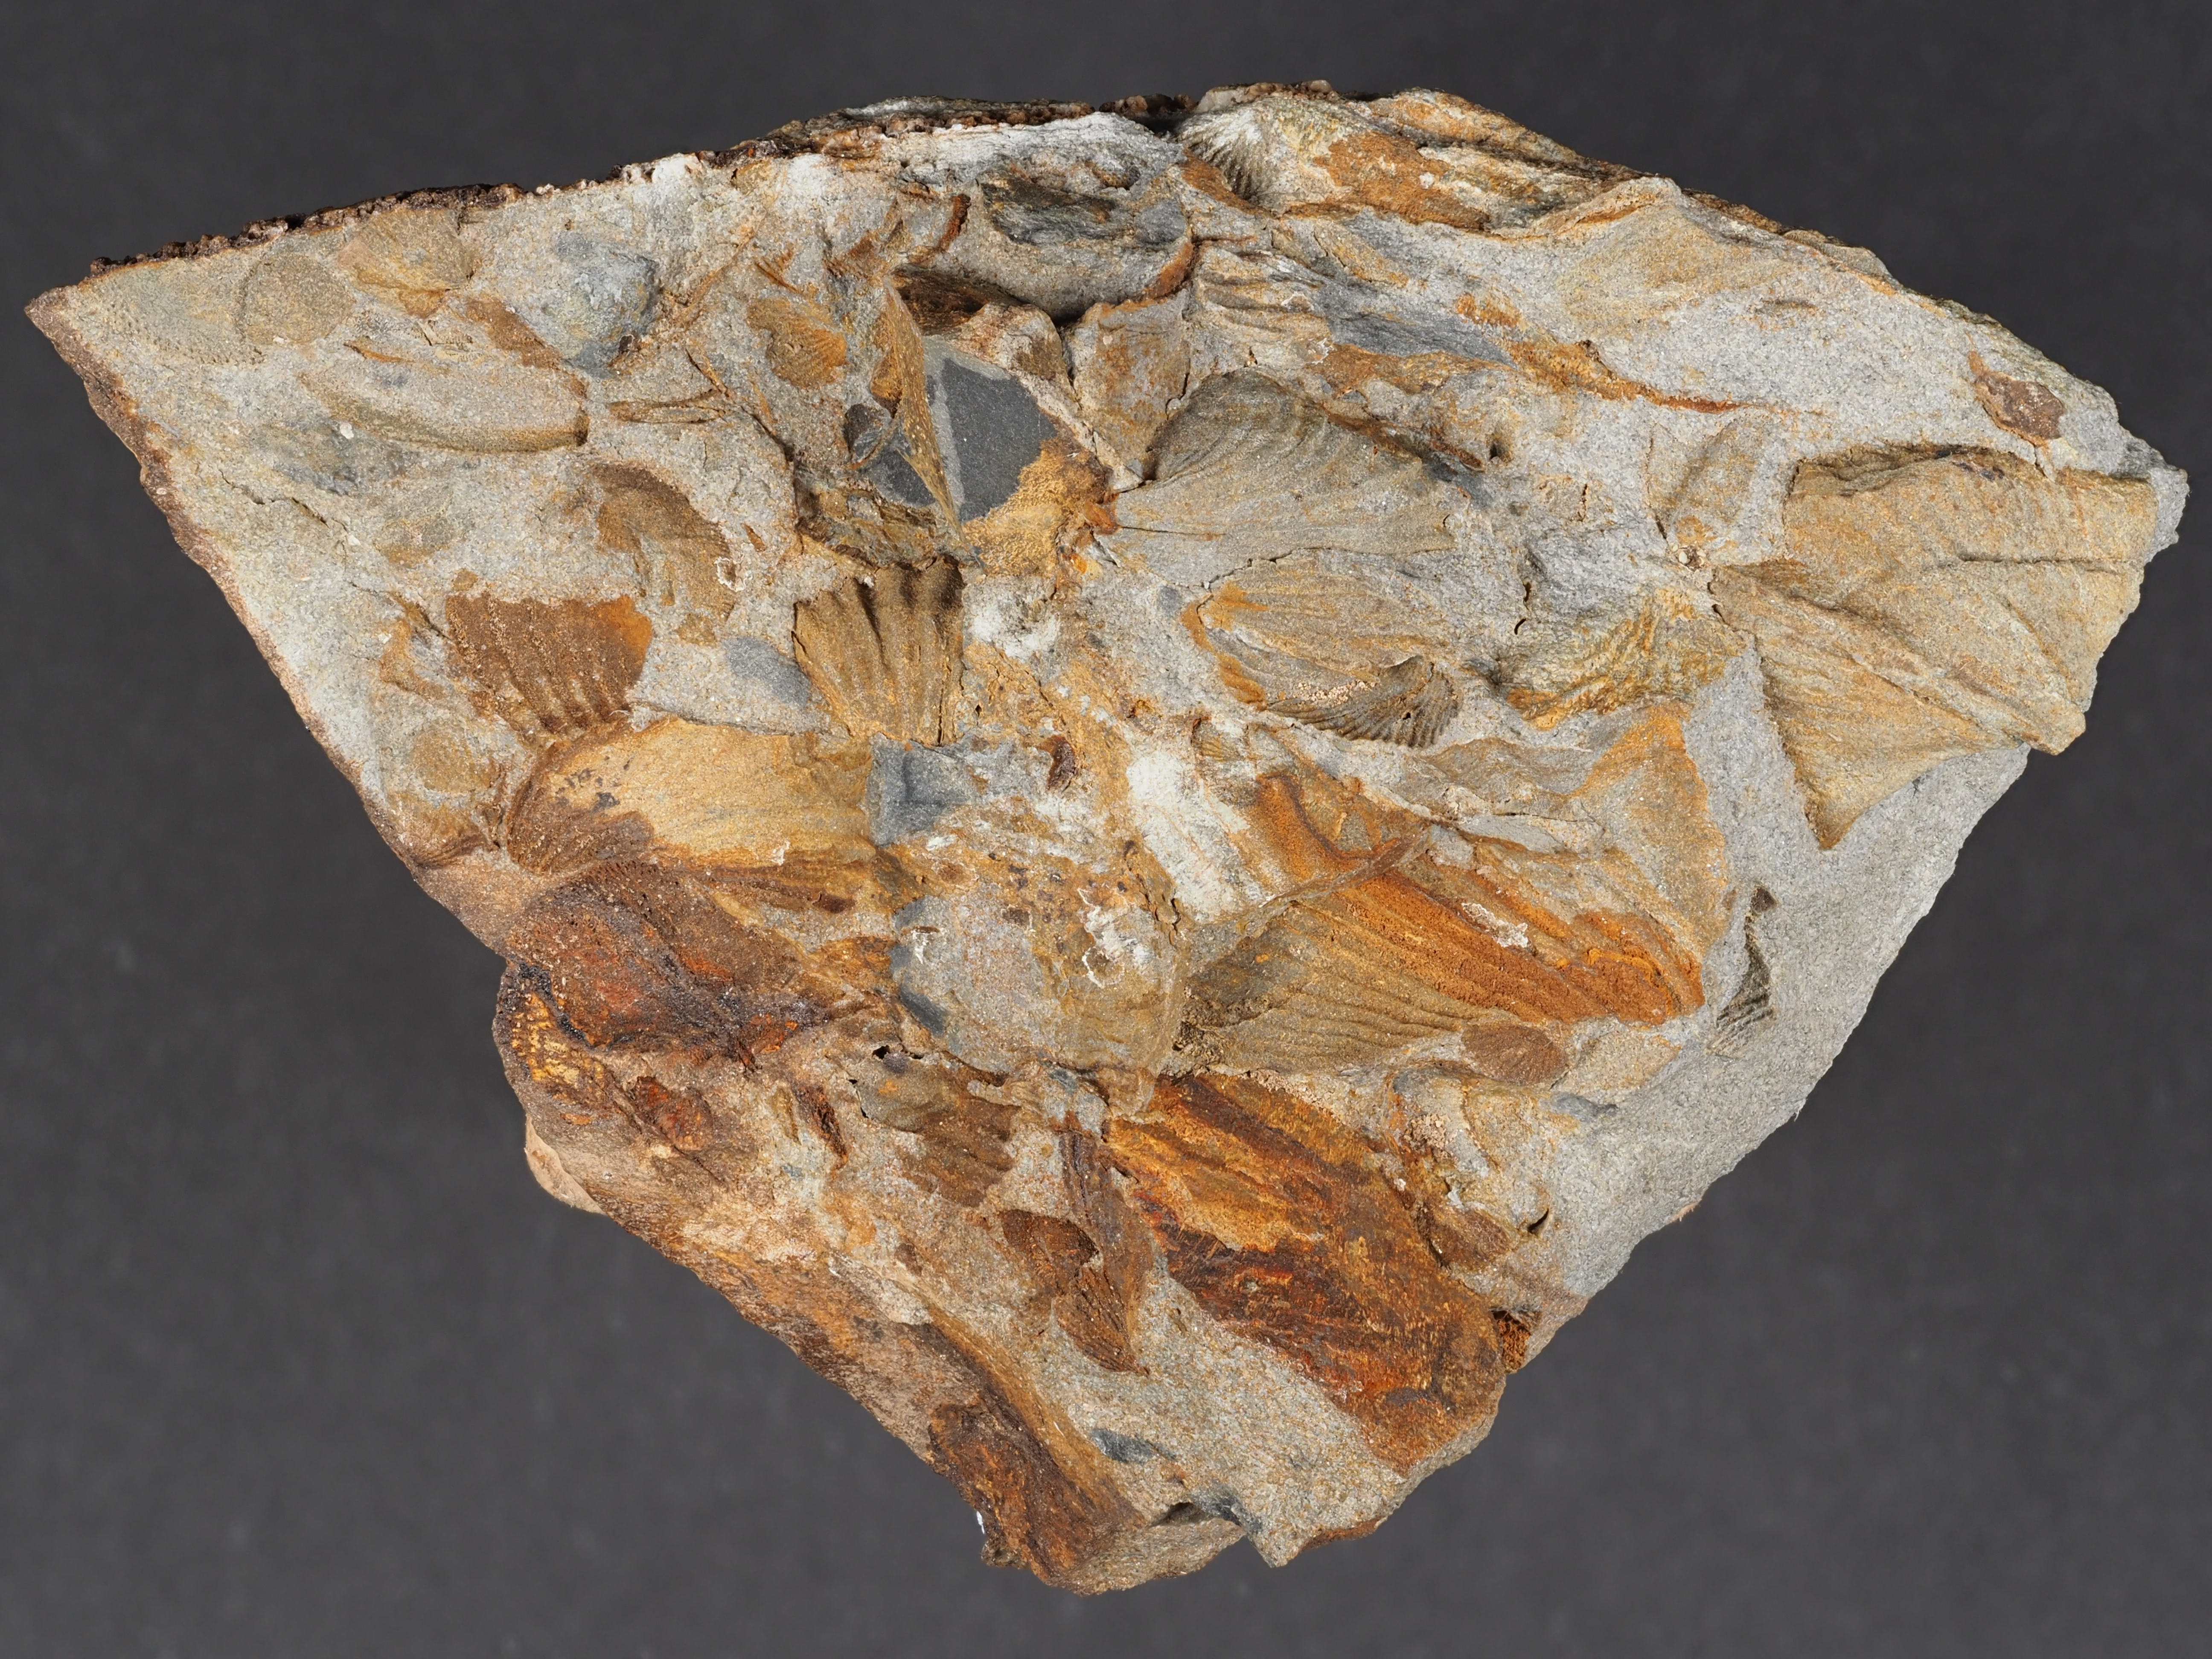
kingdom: Animalia
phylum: Brachiopoda
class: Rhynchonellata
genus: Tenuicostella
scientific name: Tenuicostella
